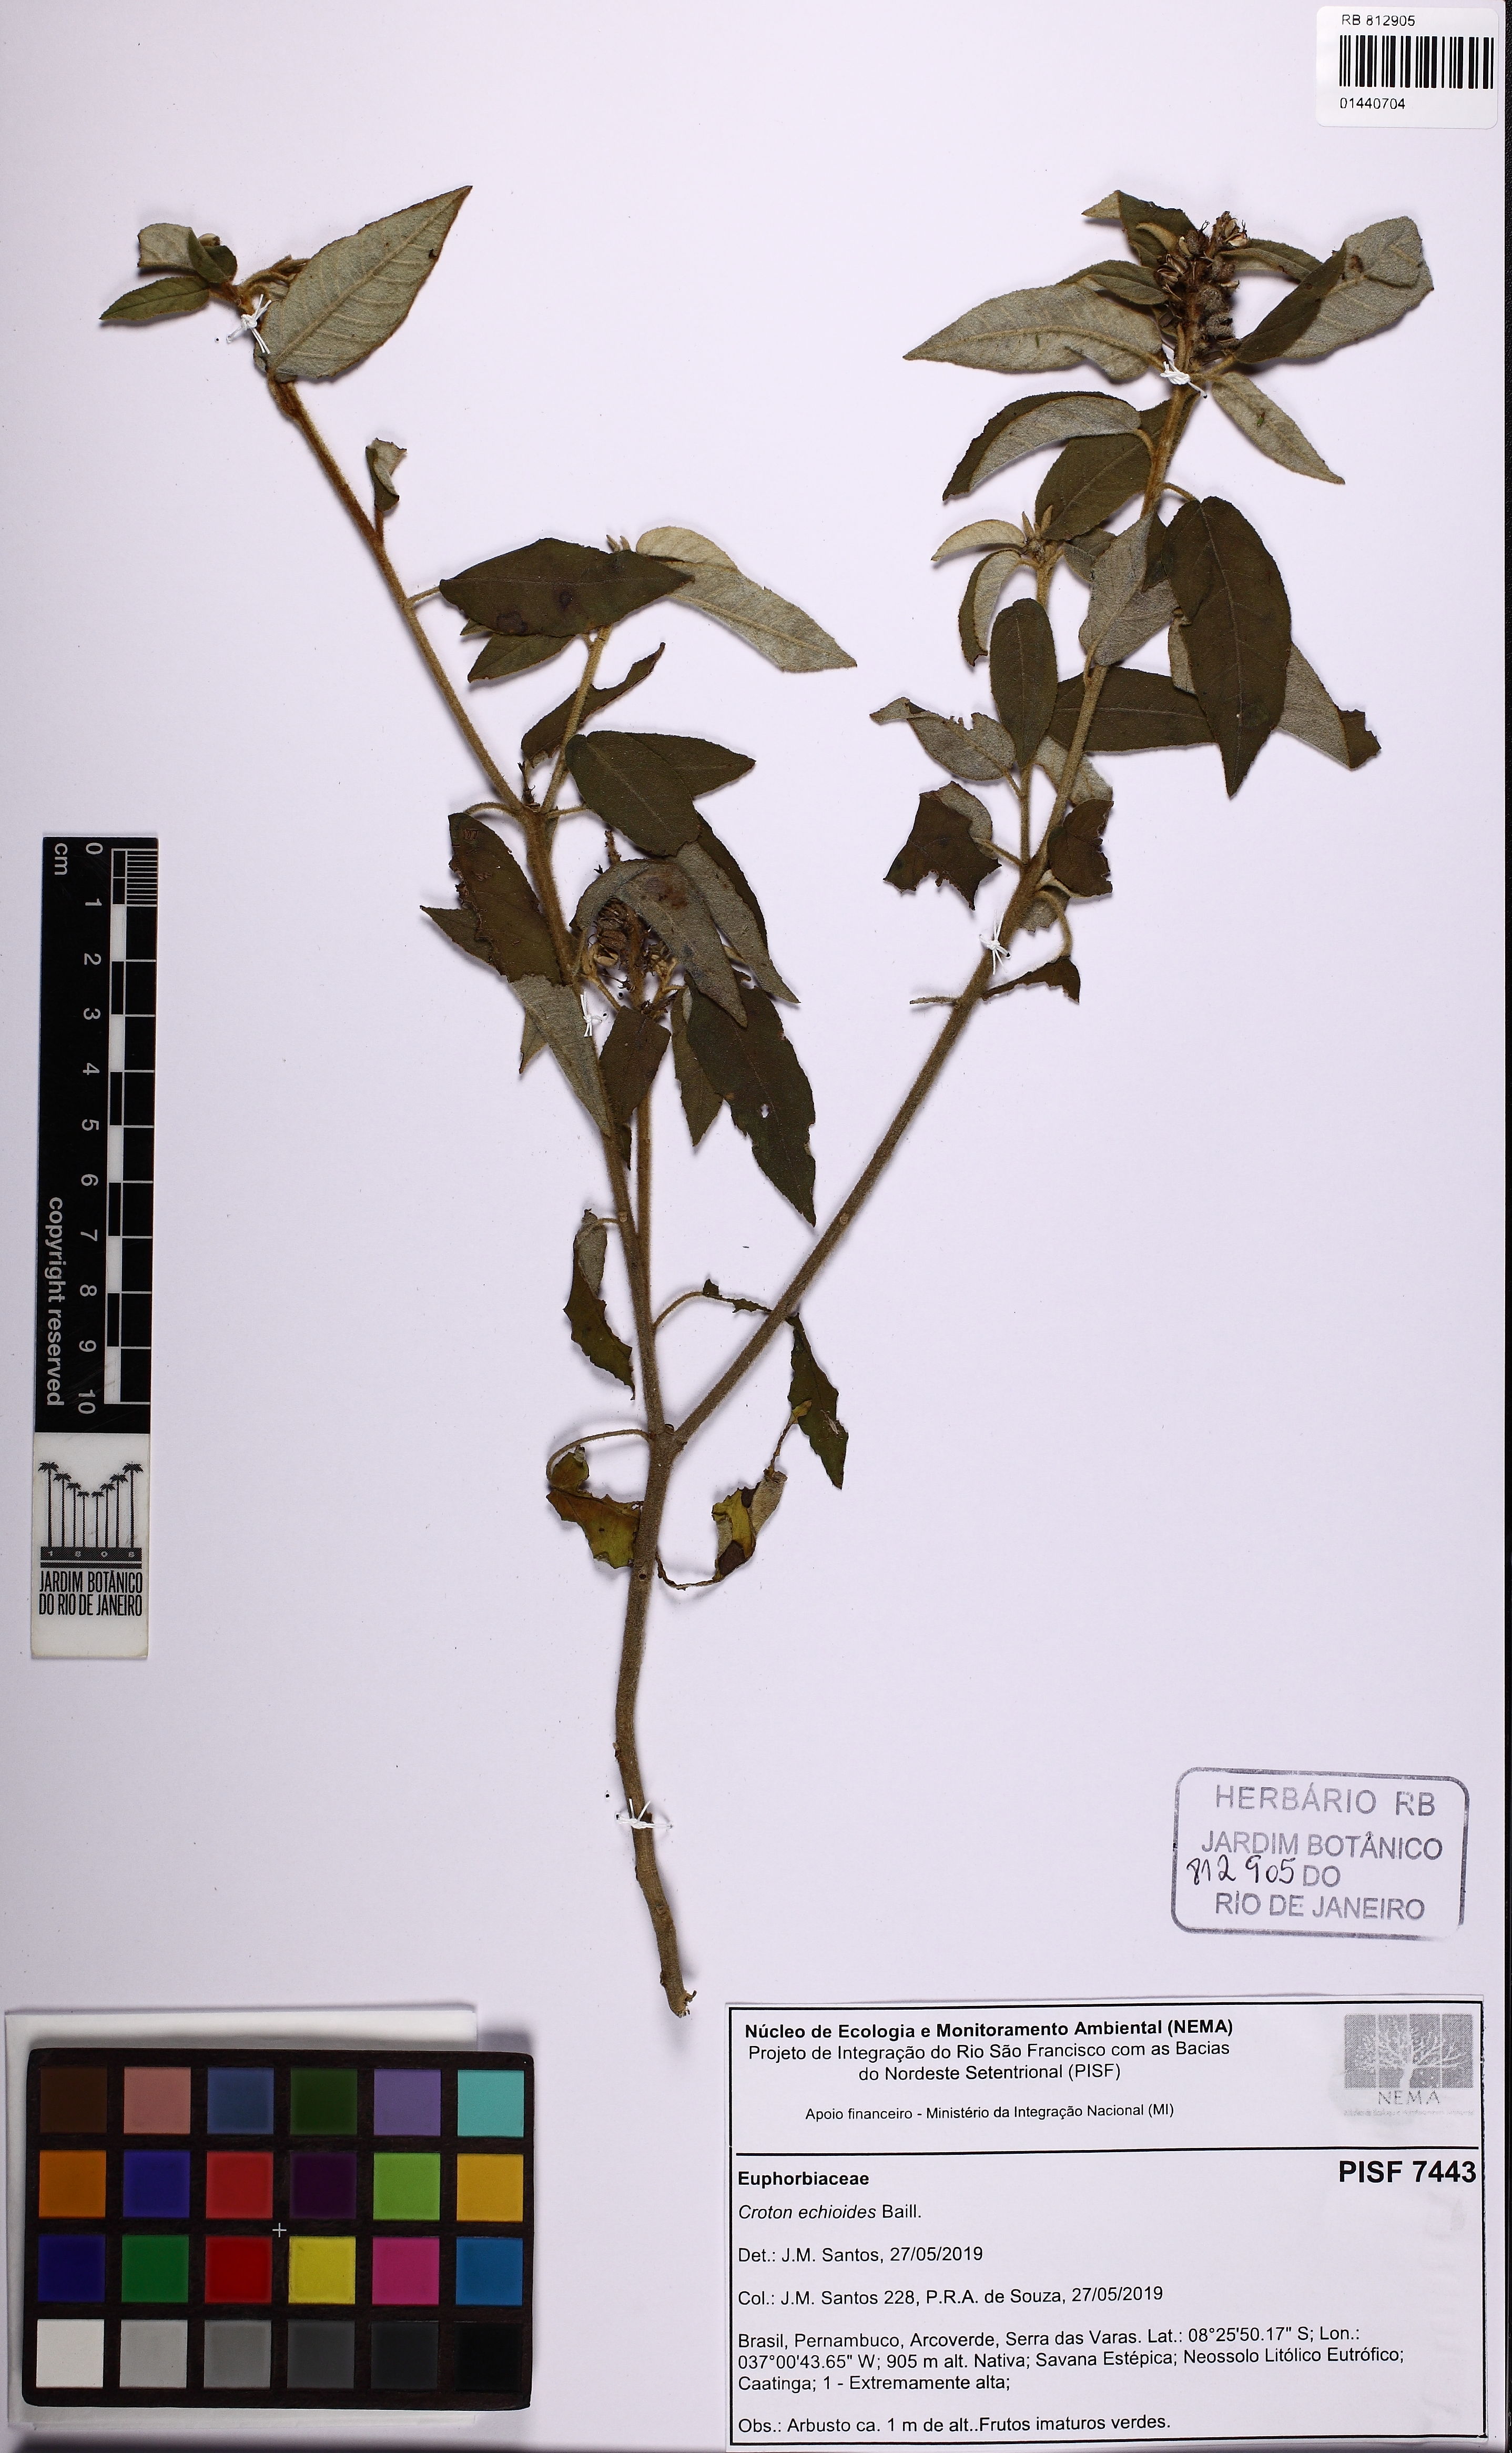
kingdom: Plantae
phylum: Tracheophyta
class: Magnoliopsida
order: Malpighiales
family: Euphorbiaceae
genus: Croton
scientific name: Croton echioides
